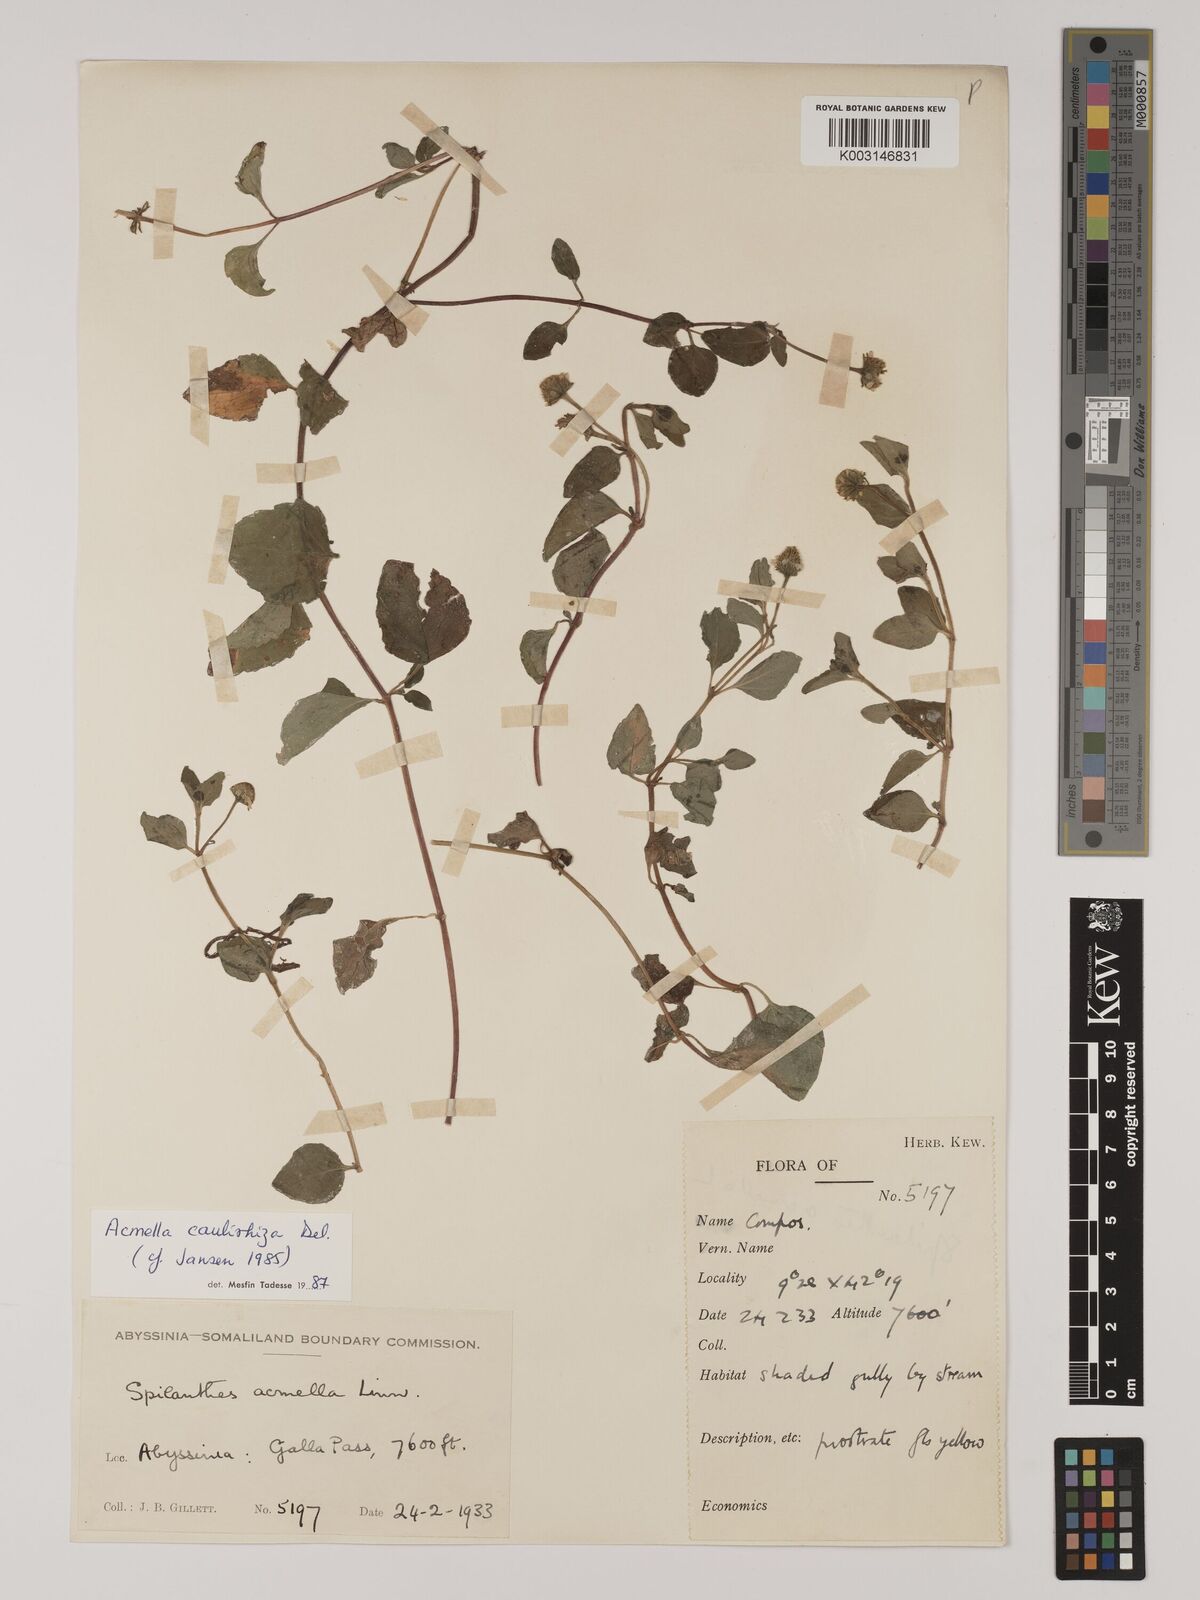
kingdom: Plantae
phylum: Tracheophyta
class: Magnoliopsida
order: Asterales
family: Asteraceae
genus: Acmella
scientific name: Acmella caulirhiza
